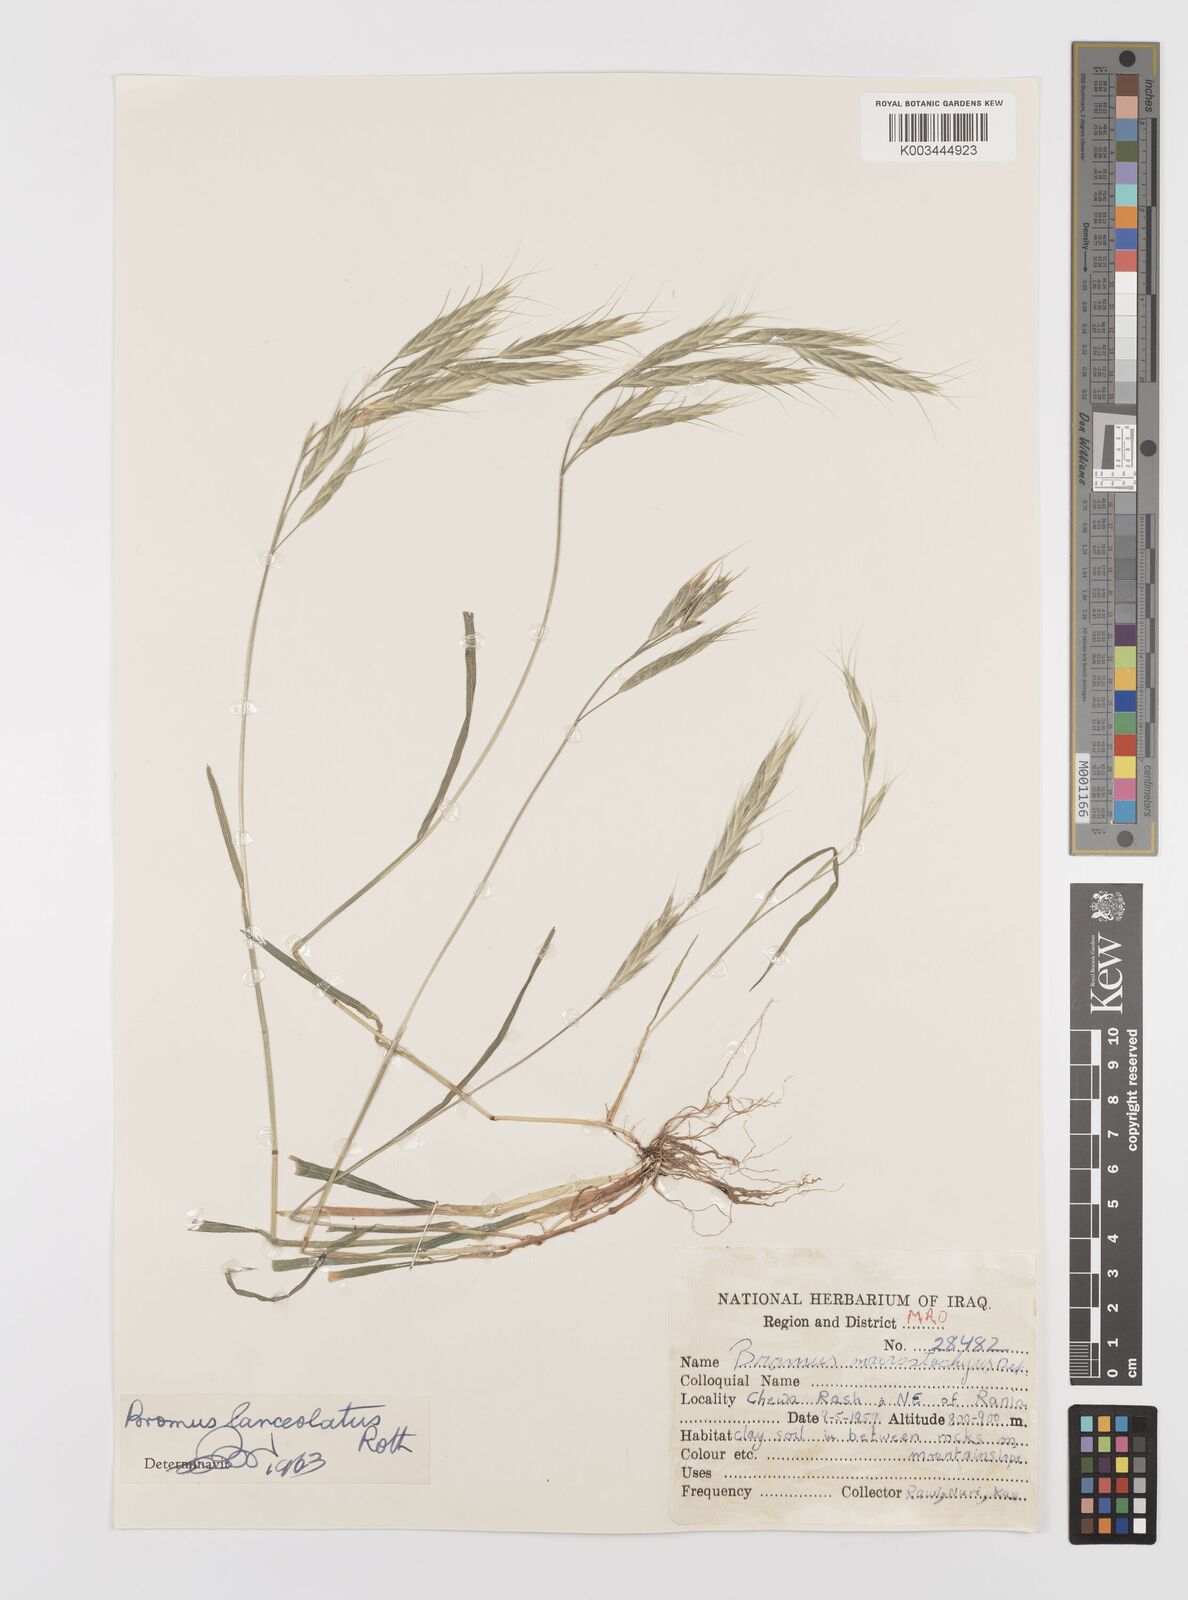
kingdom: Plantae
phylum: Tracheophyta
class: Liliopsida
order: Poales
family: Poaceae
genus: Bromus
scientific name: Bromus lanceolatus
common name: Mediterranean brome
